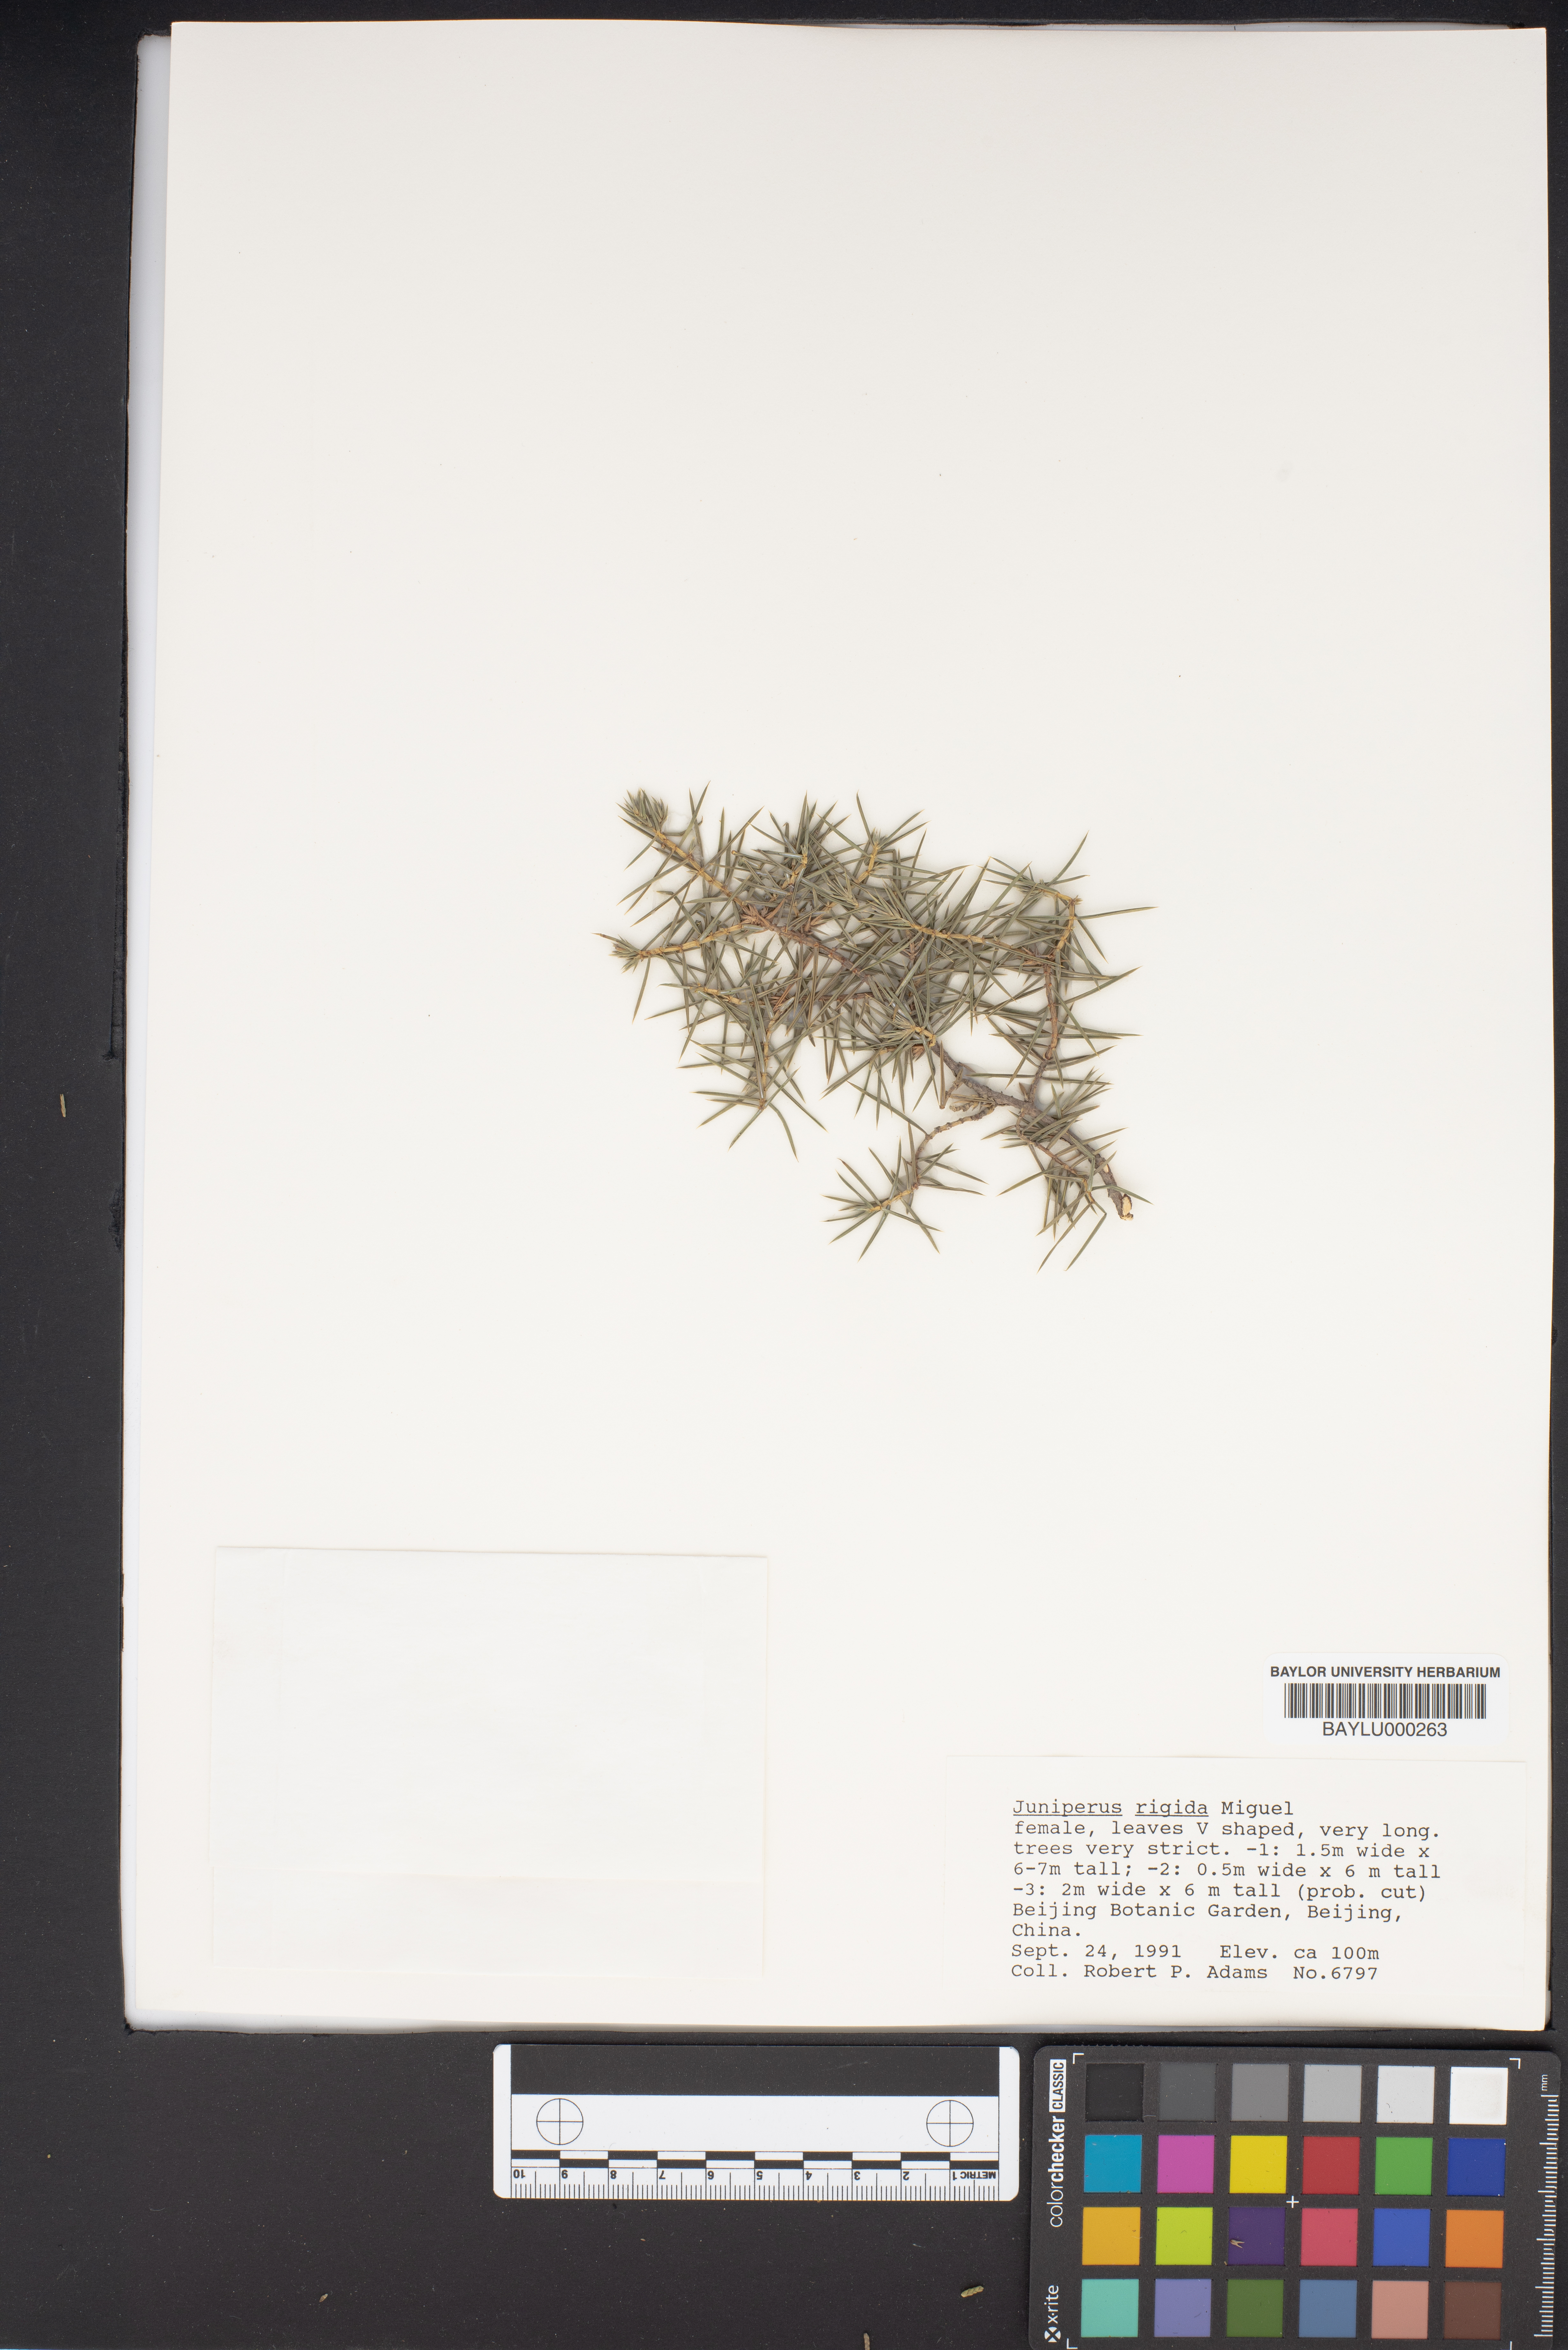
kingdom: Plantae
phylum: Tracheophyta
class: Pinopsida
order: Pinales
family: Cupressaceae
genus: Juniperus
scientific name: Juniperus rigida
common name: Needle juniper
